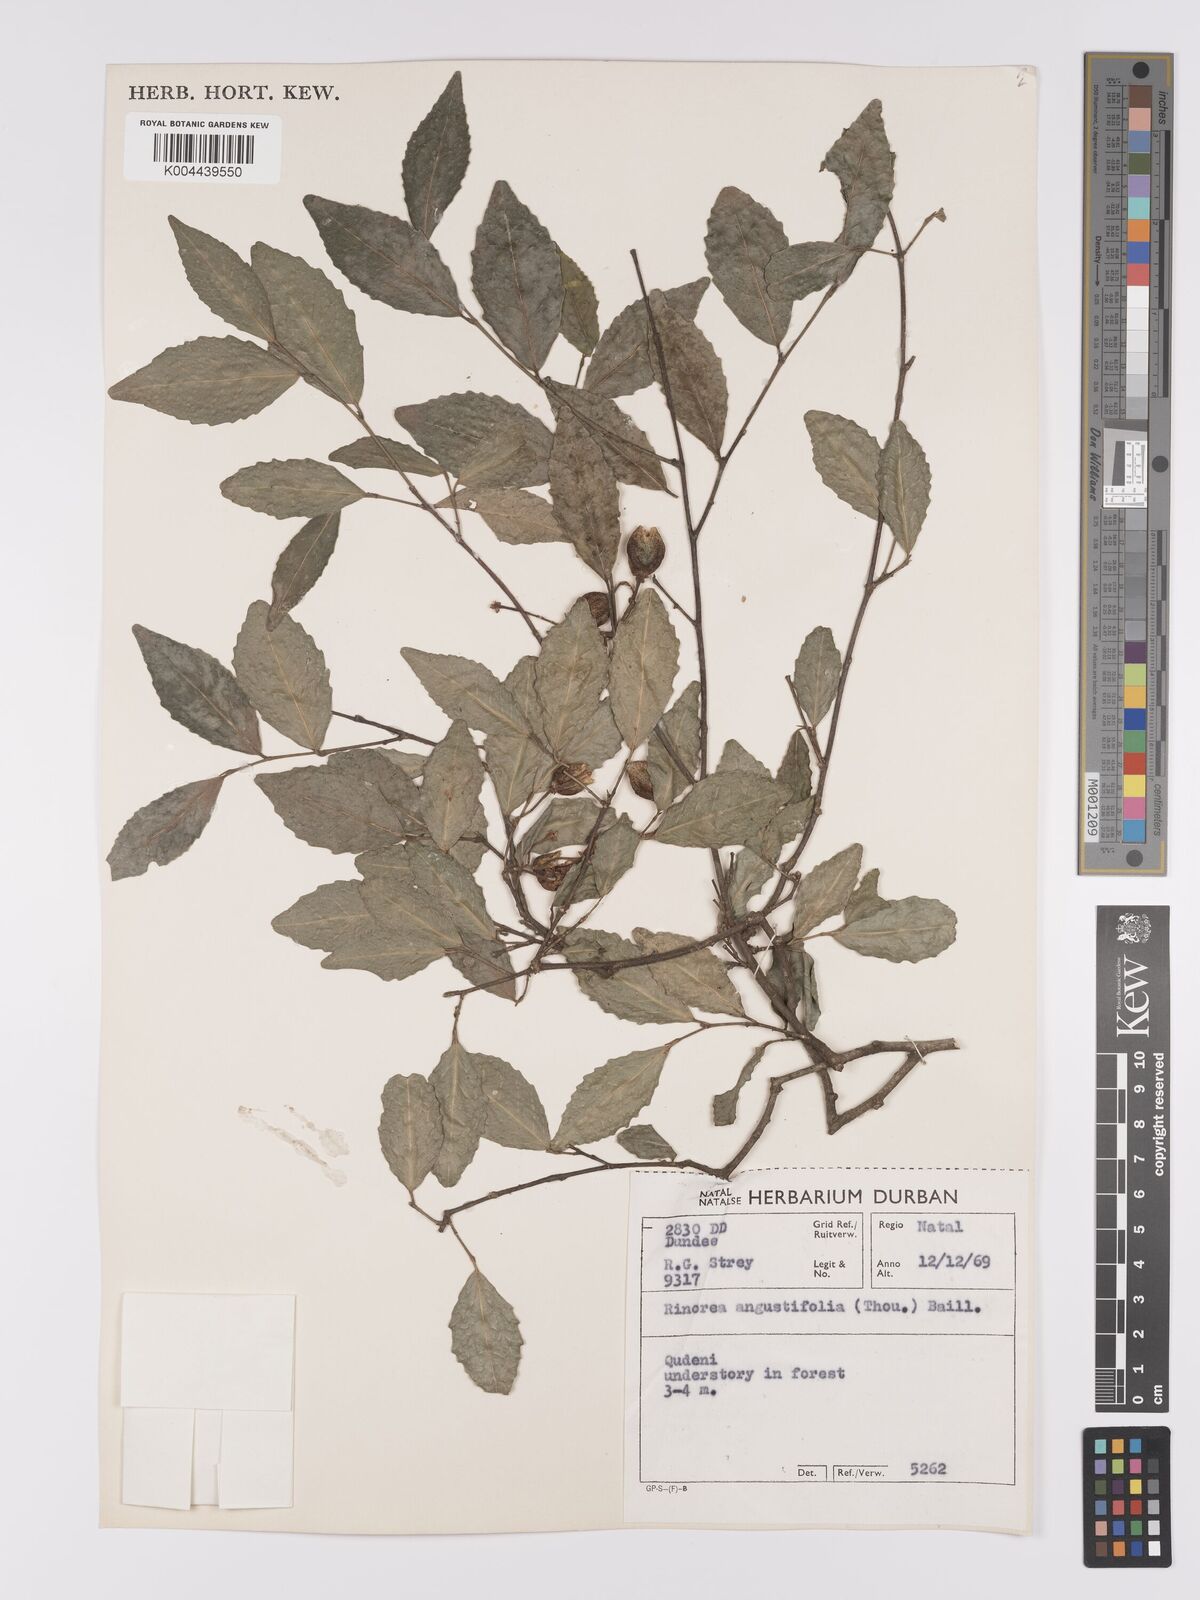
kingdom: Plantae
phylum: Tracheophyta
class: Magnoliopsida
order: Malpighiales
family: Violaceae
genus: Rinorea
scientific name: Rinorea angustifolia
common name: White violet-bush
